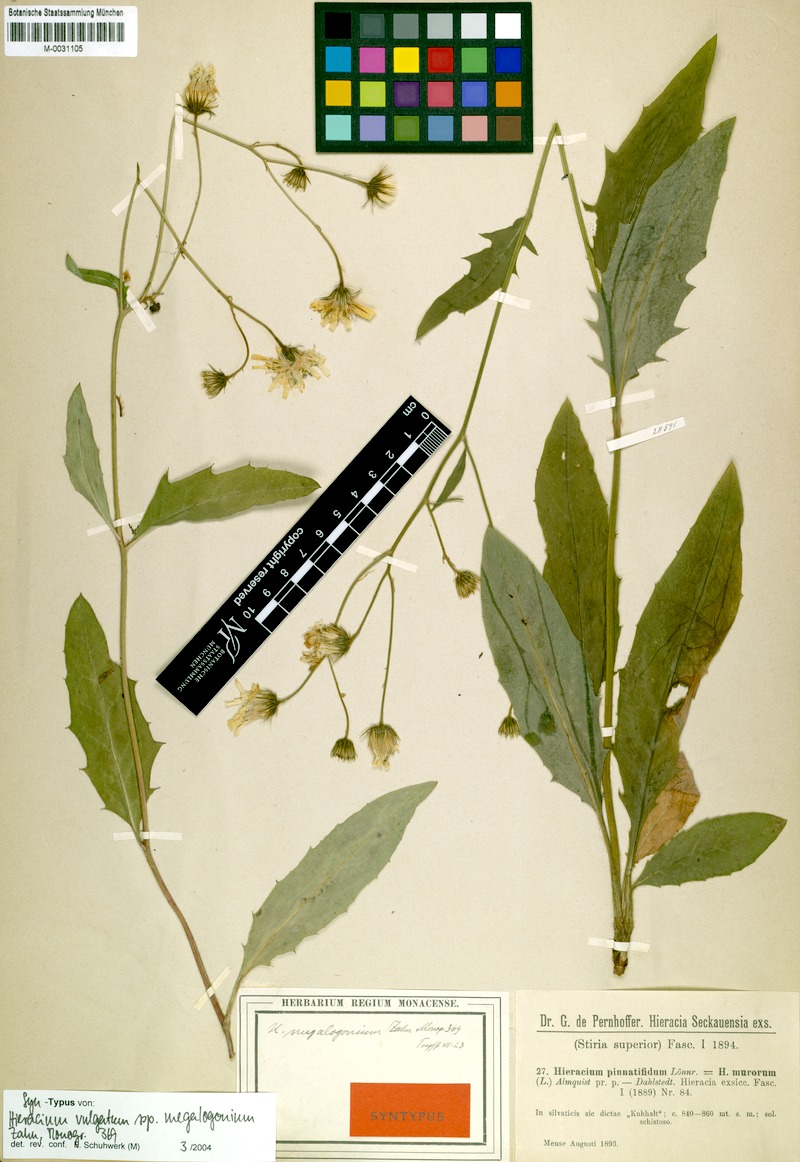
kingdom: Plantae
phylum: Tracheophyta
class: Magnoliopsida
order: Asterales
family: Asteraceae
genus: Hieracium
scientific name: Hieracium lachenalii
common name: Common hawkweed
